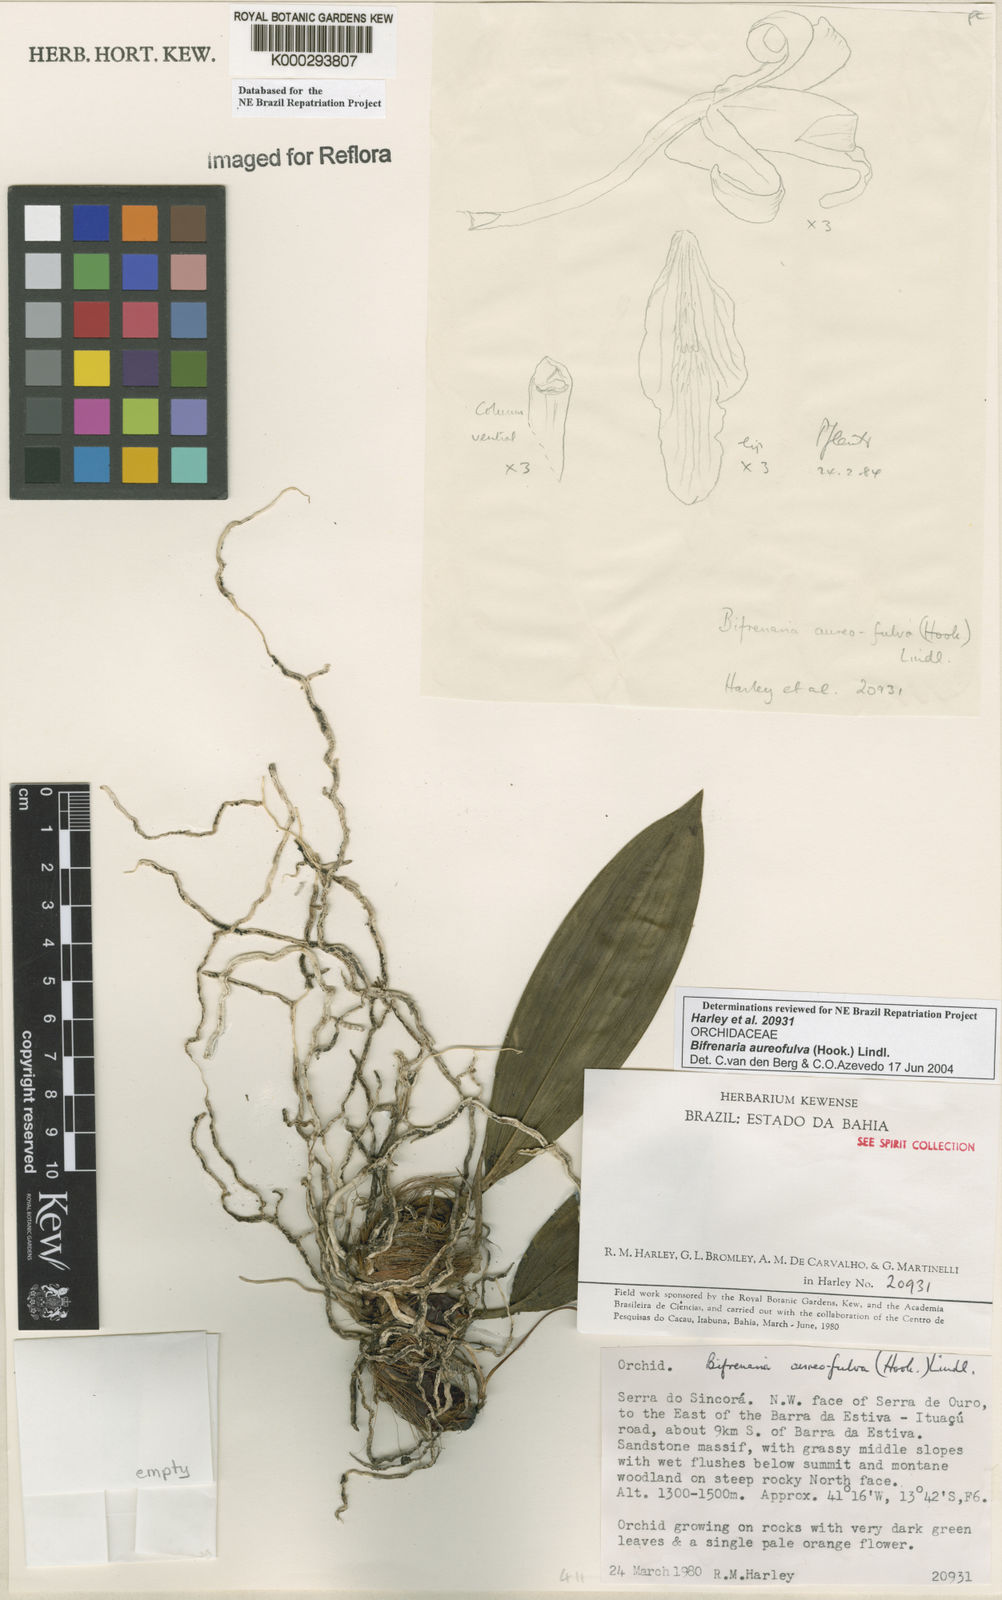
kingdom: Plantae
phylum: Tracheophyta
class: Liliopsida
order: Asparagales
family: Orchidaceae
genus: Bifrenaria
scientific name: Bifrenaria aureofulva
